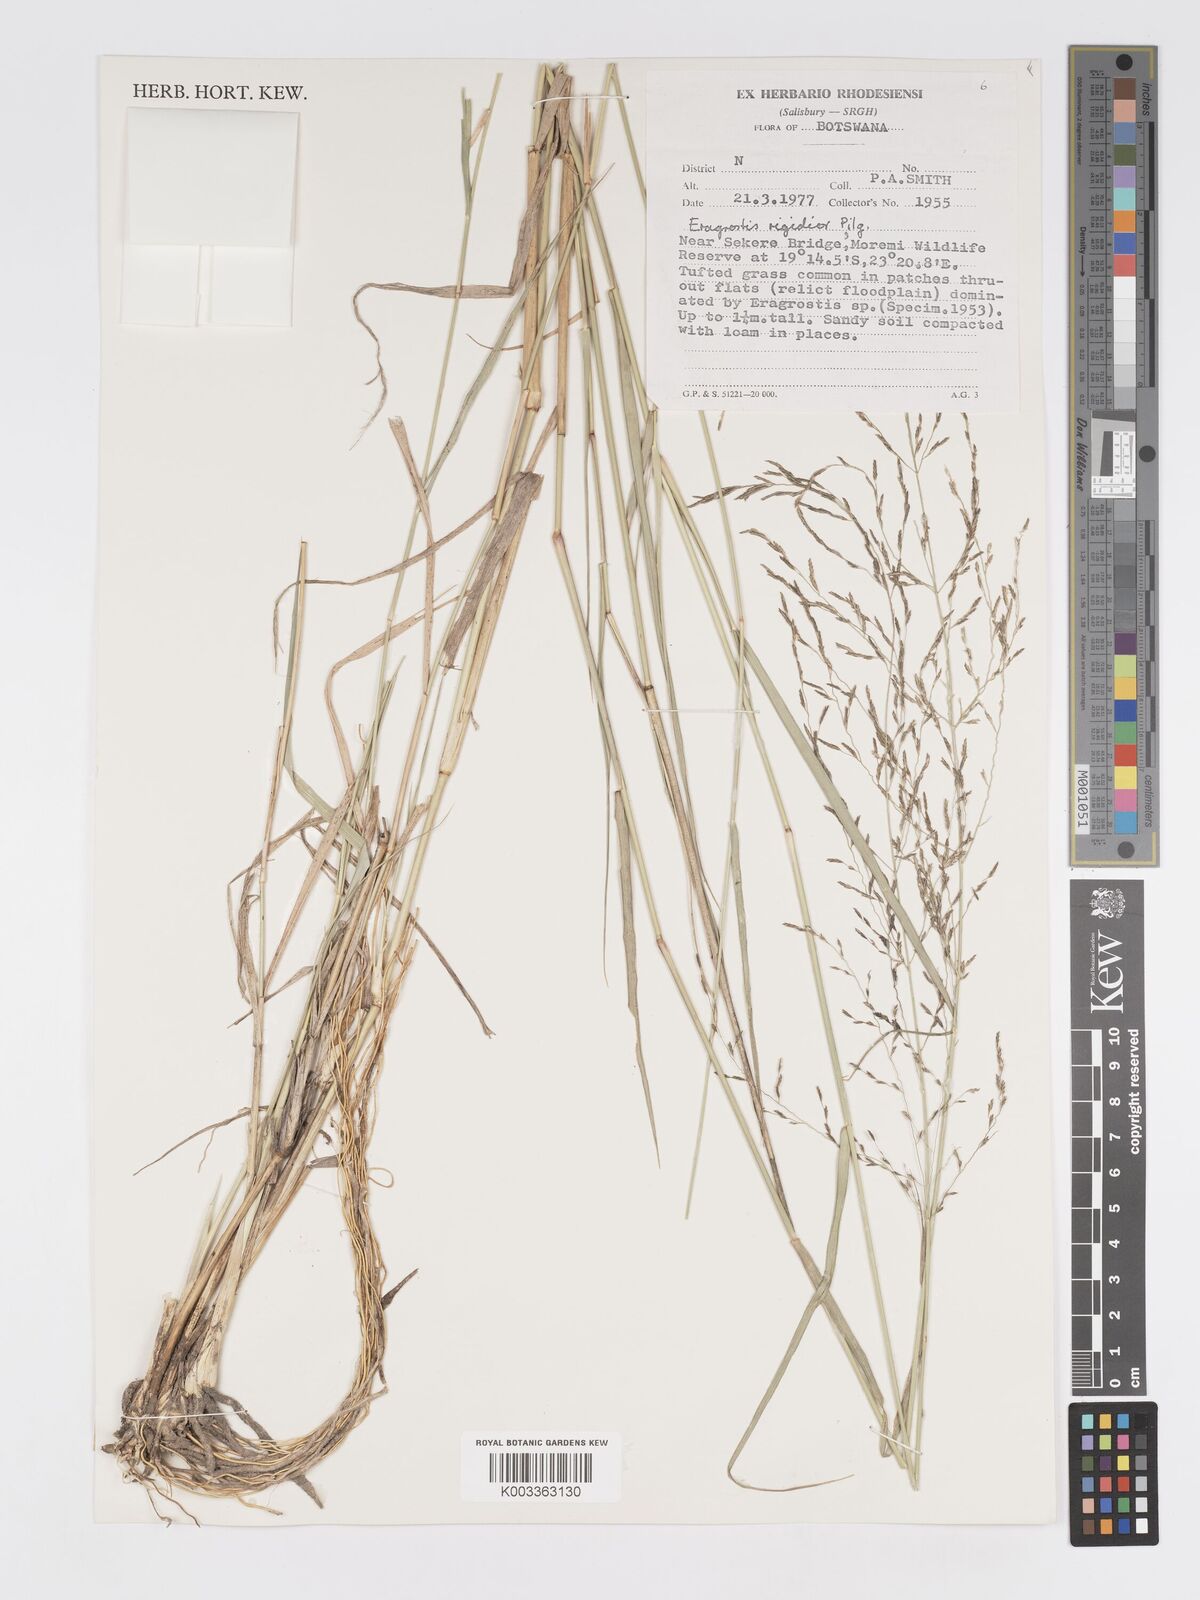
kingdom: Plantae
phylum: Tracheophyta
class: Liliopsida
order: Poales
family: Poaceae
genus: Eragrostis
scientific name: Eragrostis cylindriflora
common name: Cylinderflower lovegrass
